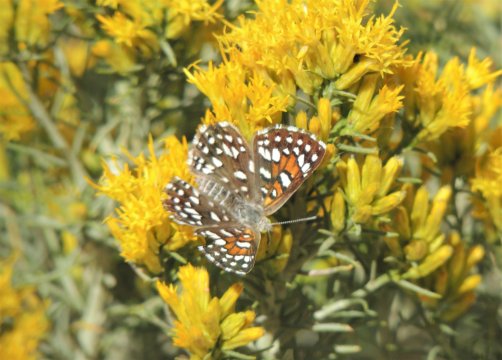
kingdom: Animalia
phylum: Arthropoda
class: Insecta
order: Lepidoptera
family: Riodinidae
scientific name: Riodinidae
